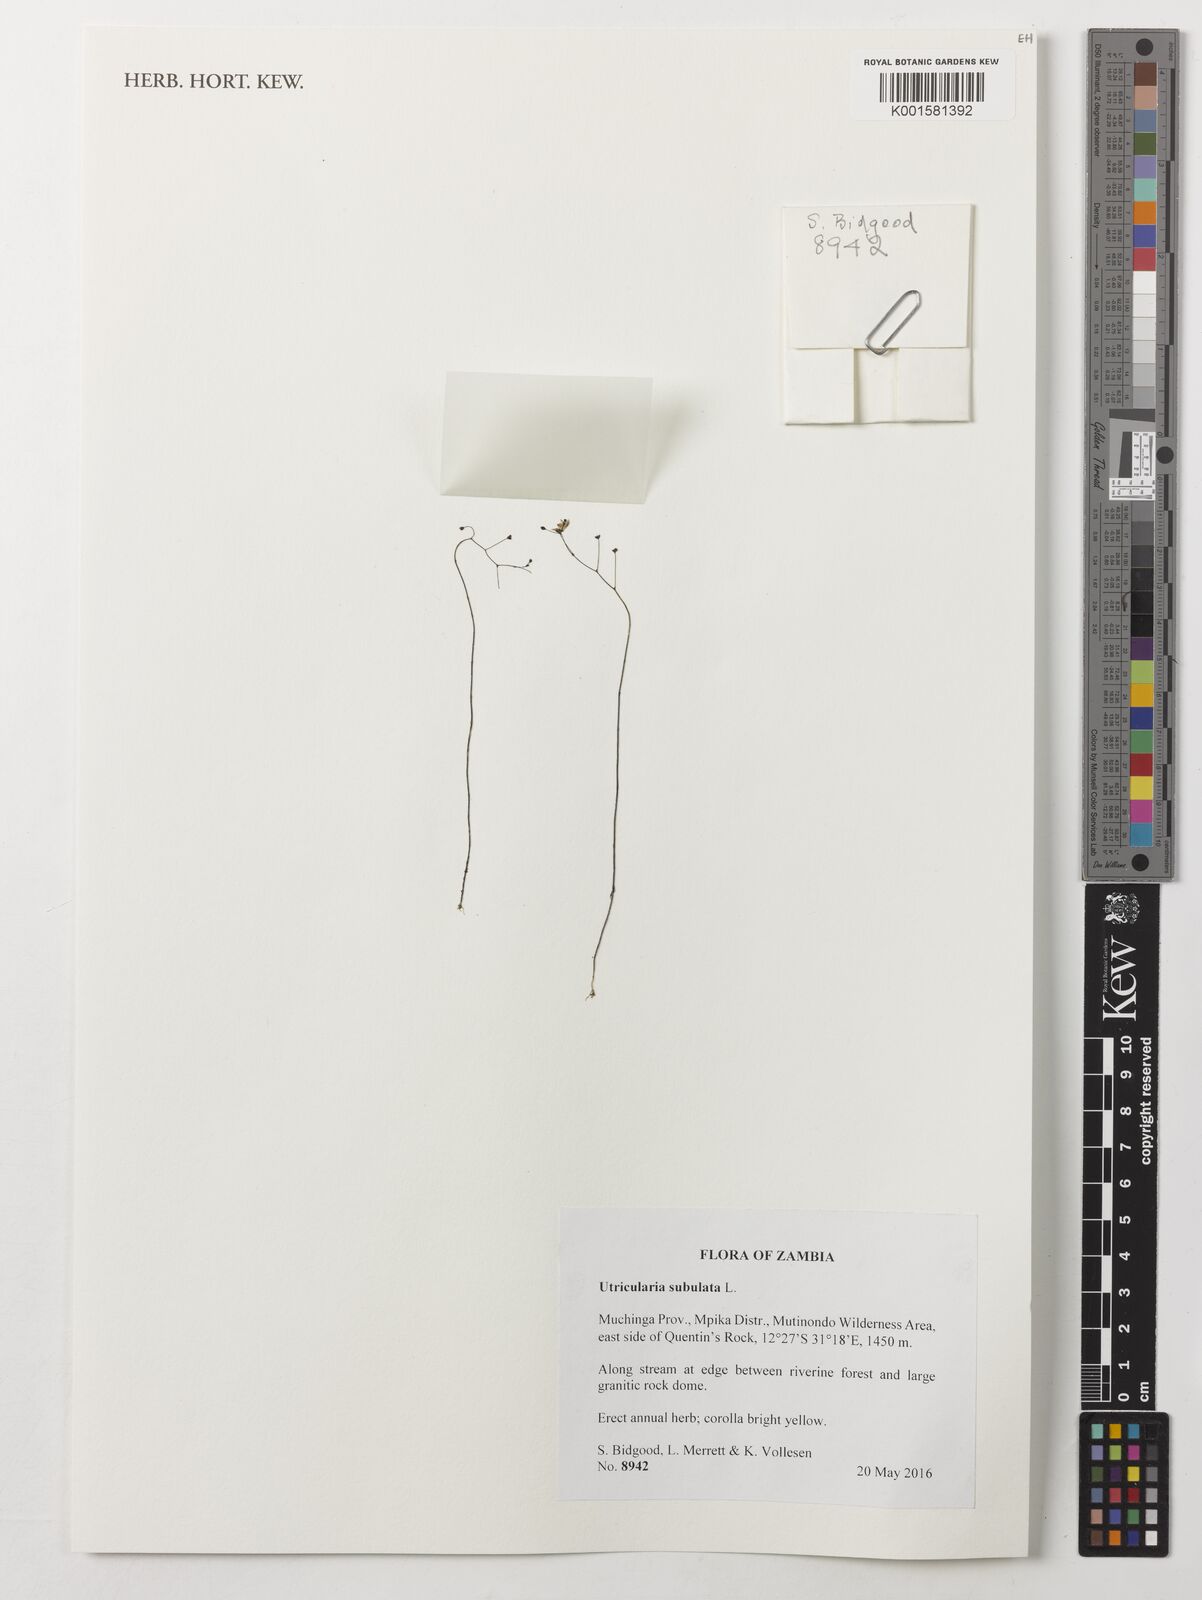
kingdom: Plantae
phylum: Tracheophyta
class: Magnoliopsida
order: Lamiales
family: Lentibulariaceae
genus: Utricularia
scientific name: Utricularia subulata
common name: Tiny bladderwort
